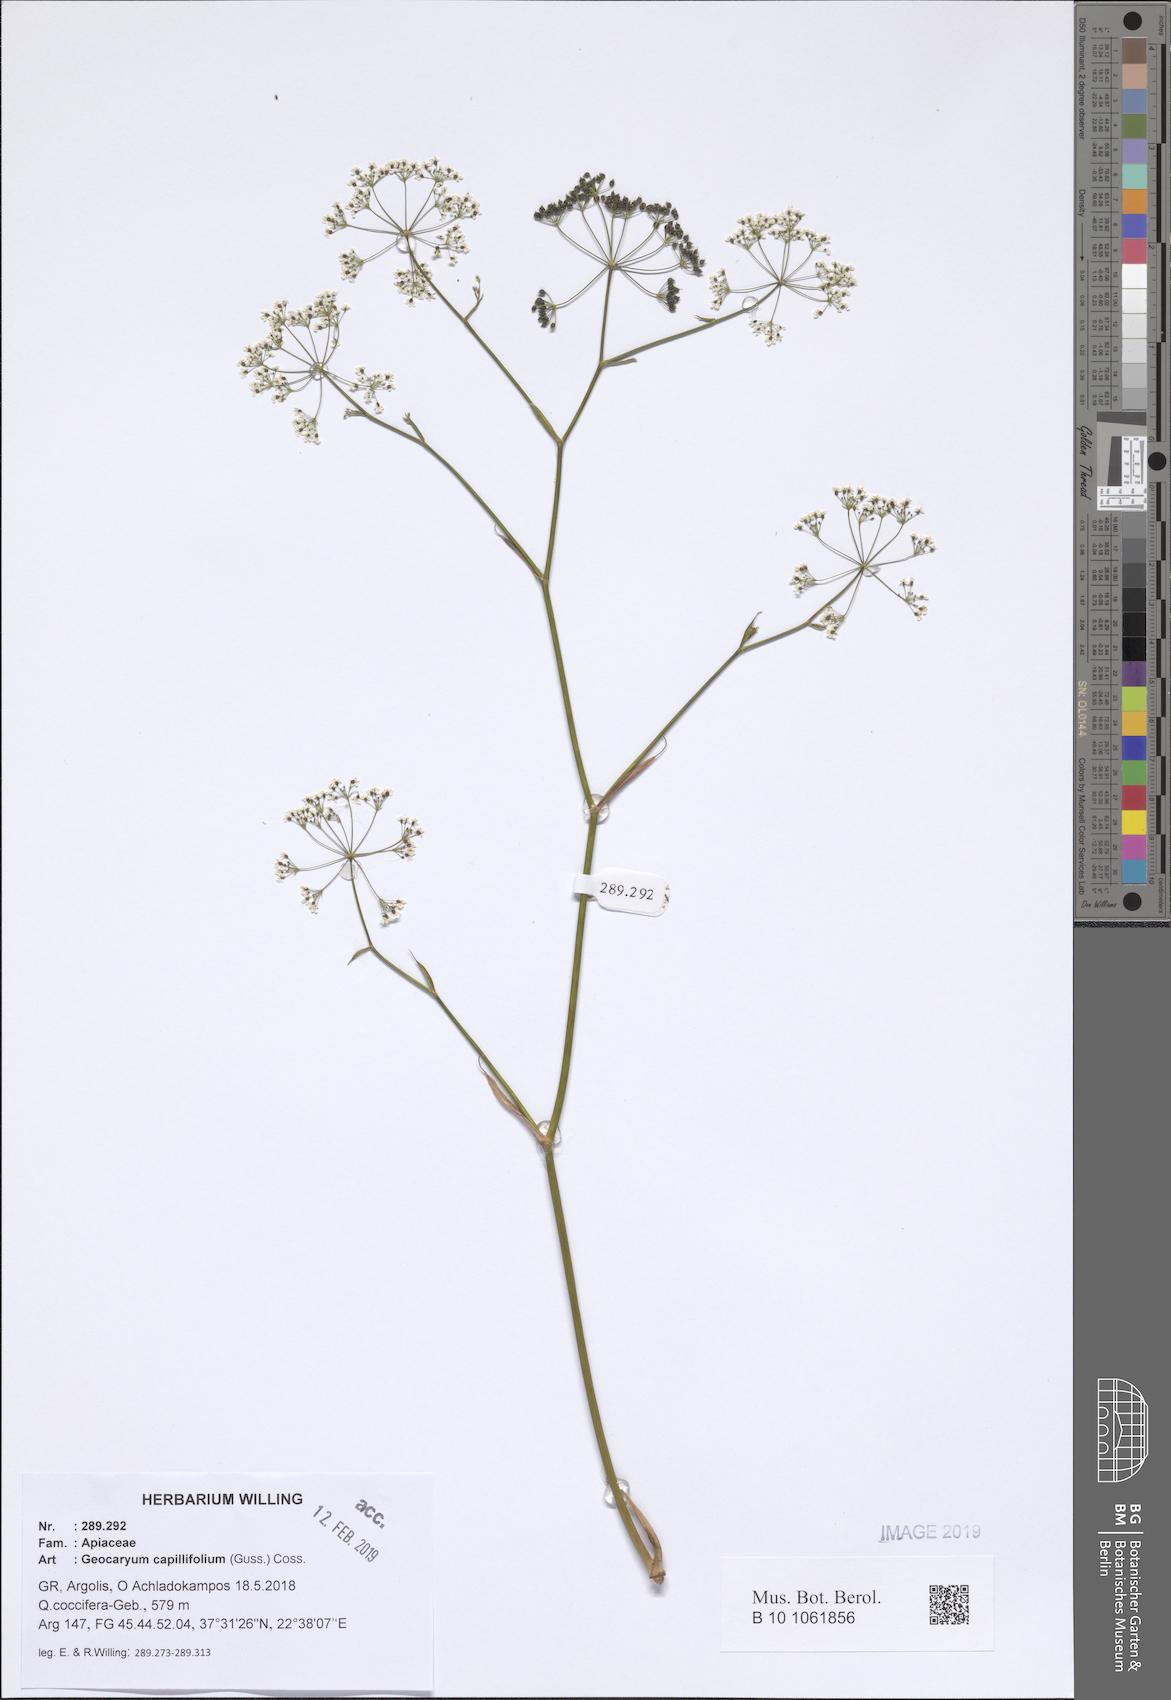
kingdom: Plantae
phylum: Tracheophyta
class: Magnoliopsida
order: Apiales
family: Apiaceae
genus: Geocaryum
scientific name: Geocaryum capillifolium
